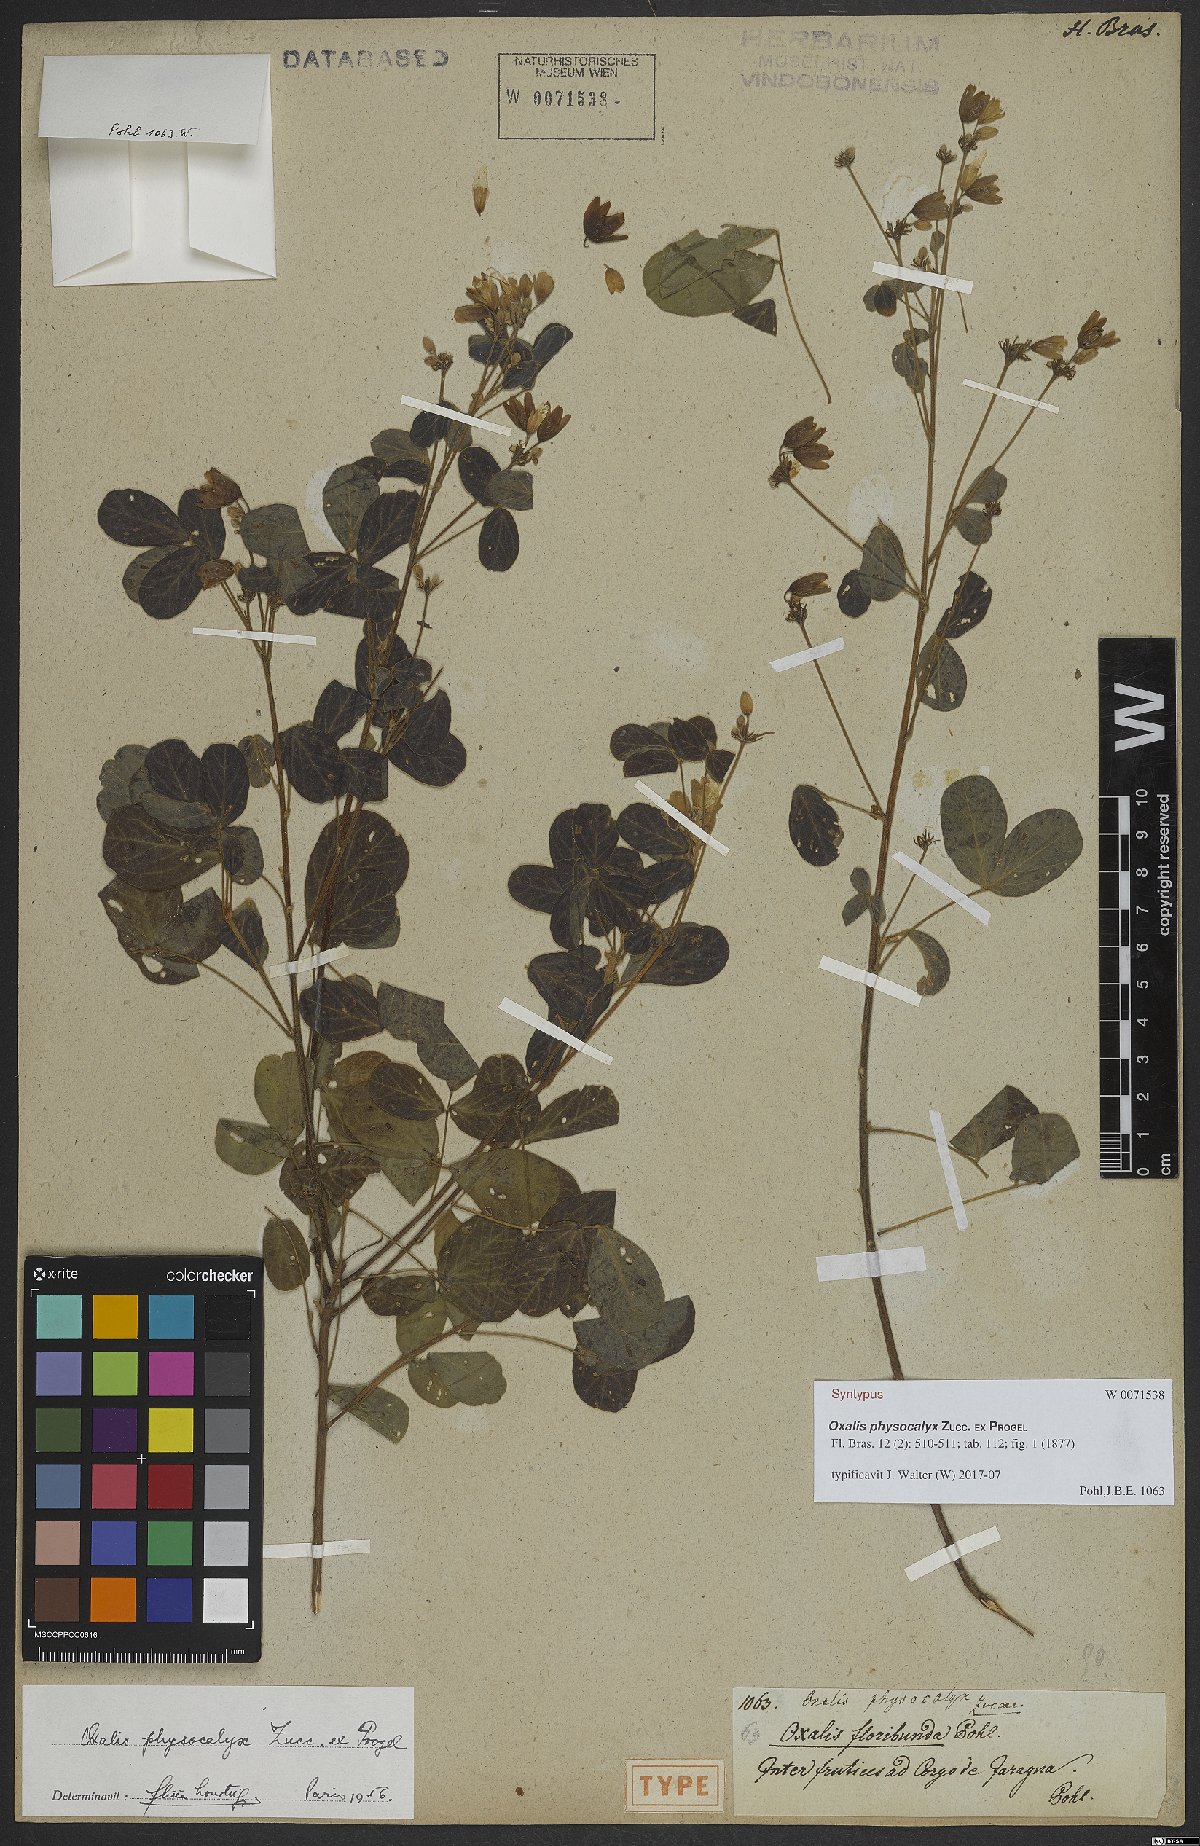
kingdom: Plantae
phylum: Tracheophyta
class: Magnoliopsida
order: Oxalidales
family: Oxalidaceae
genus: Oxalis
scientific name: Oxalis physocalyx
